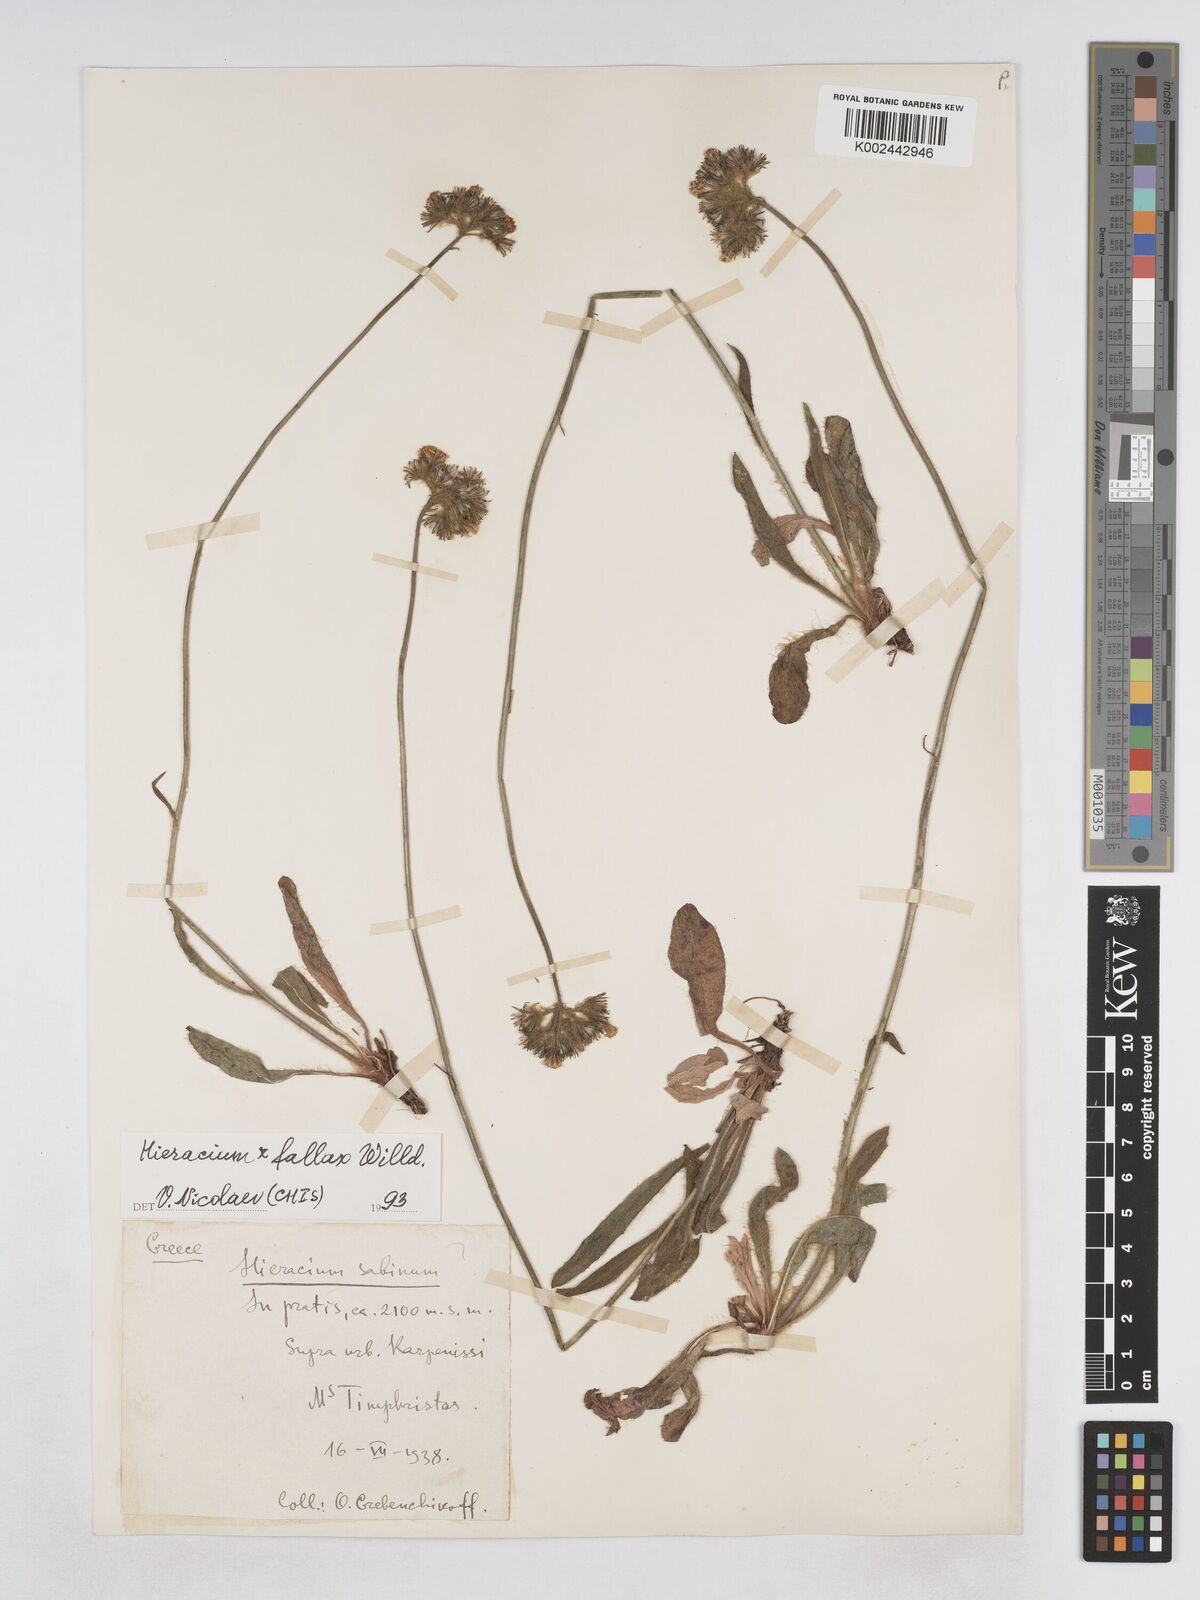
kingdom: Plantae
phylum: Tracheophyta
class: Magnoliopsida
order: Asterales
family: Asteraceae
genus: Pilosella
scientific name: Pilosella fallax
